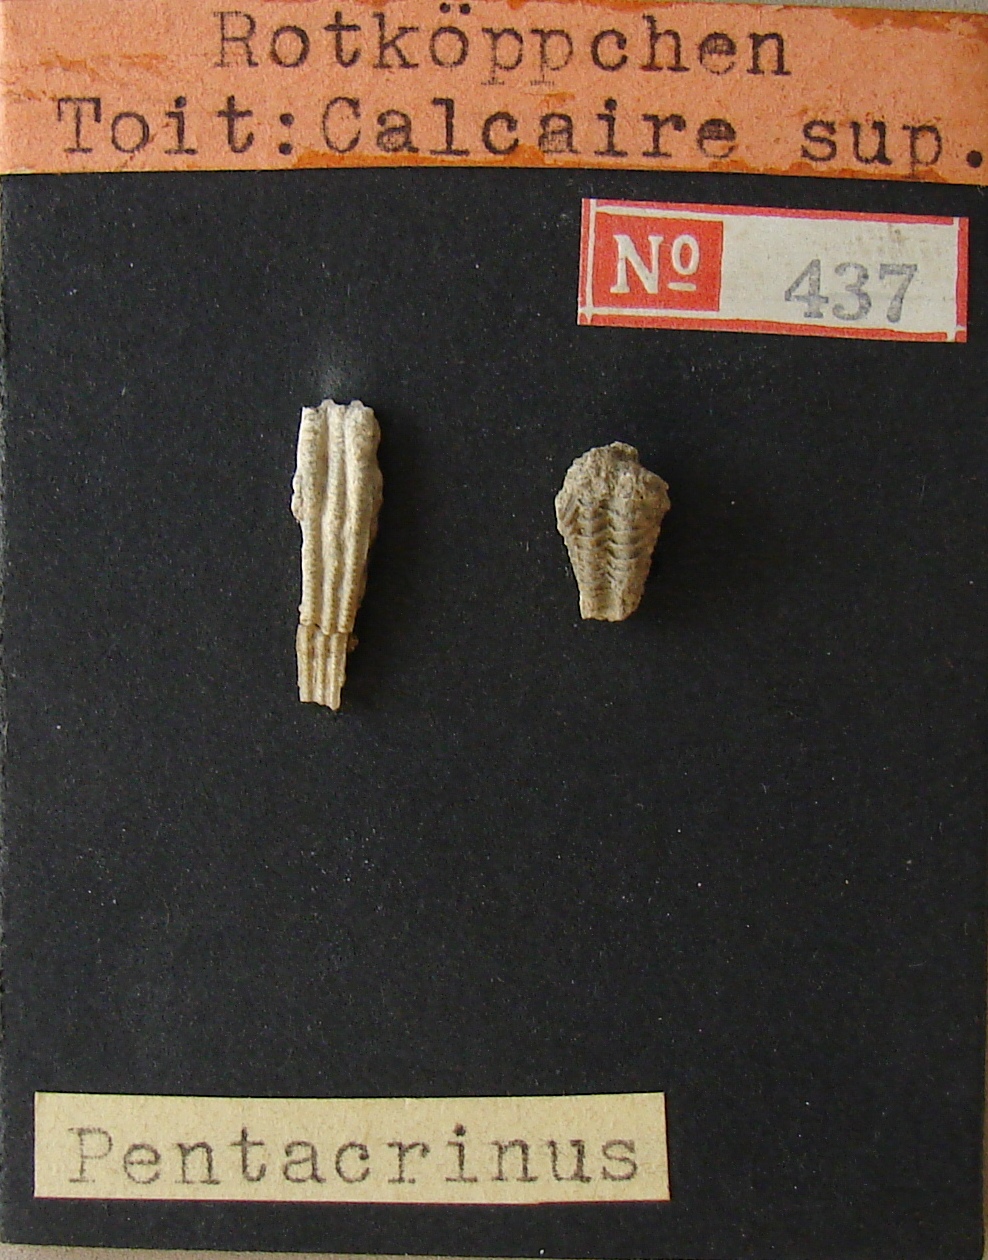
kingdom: Animalia
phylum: Echinodermata
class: Crinoidea
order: Isocrinida
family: Pentacrinitidae
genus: Pentacrinus
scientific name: Pentacrinus
